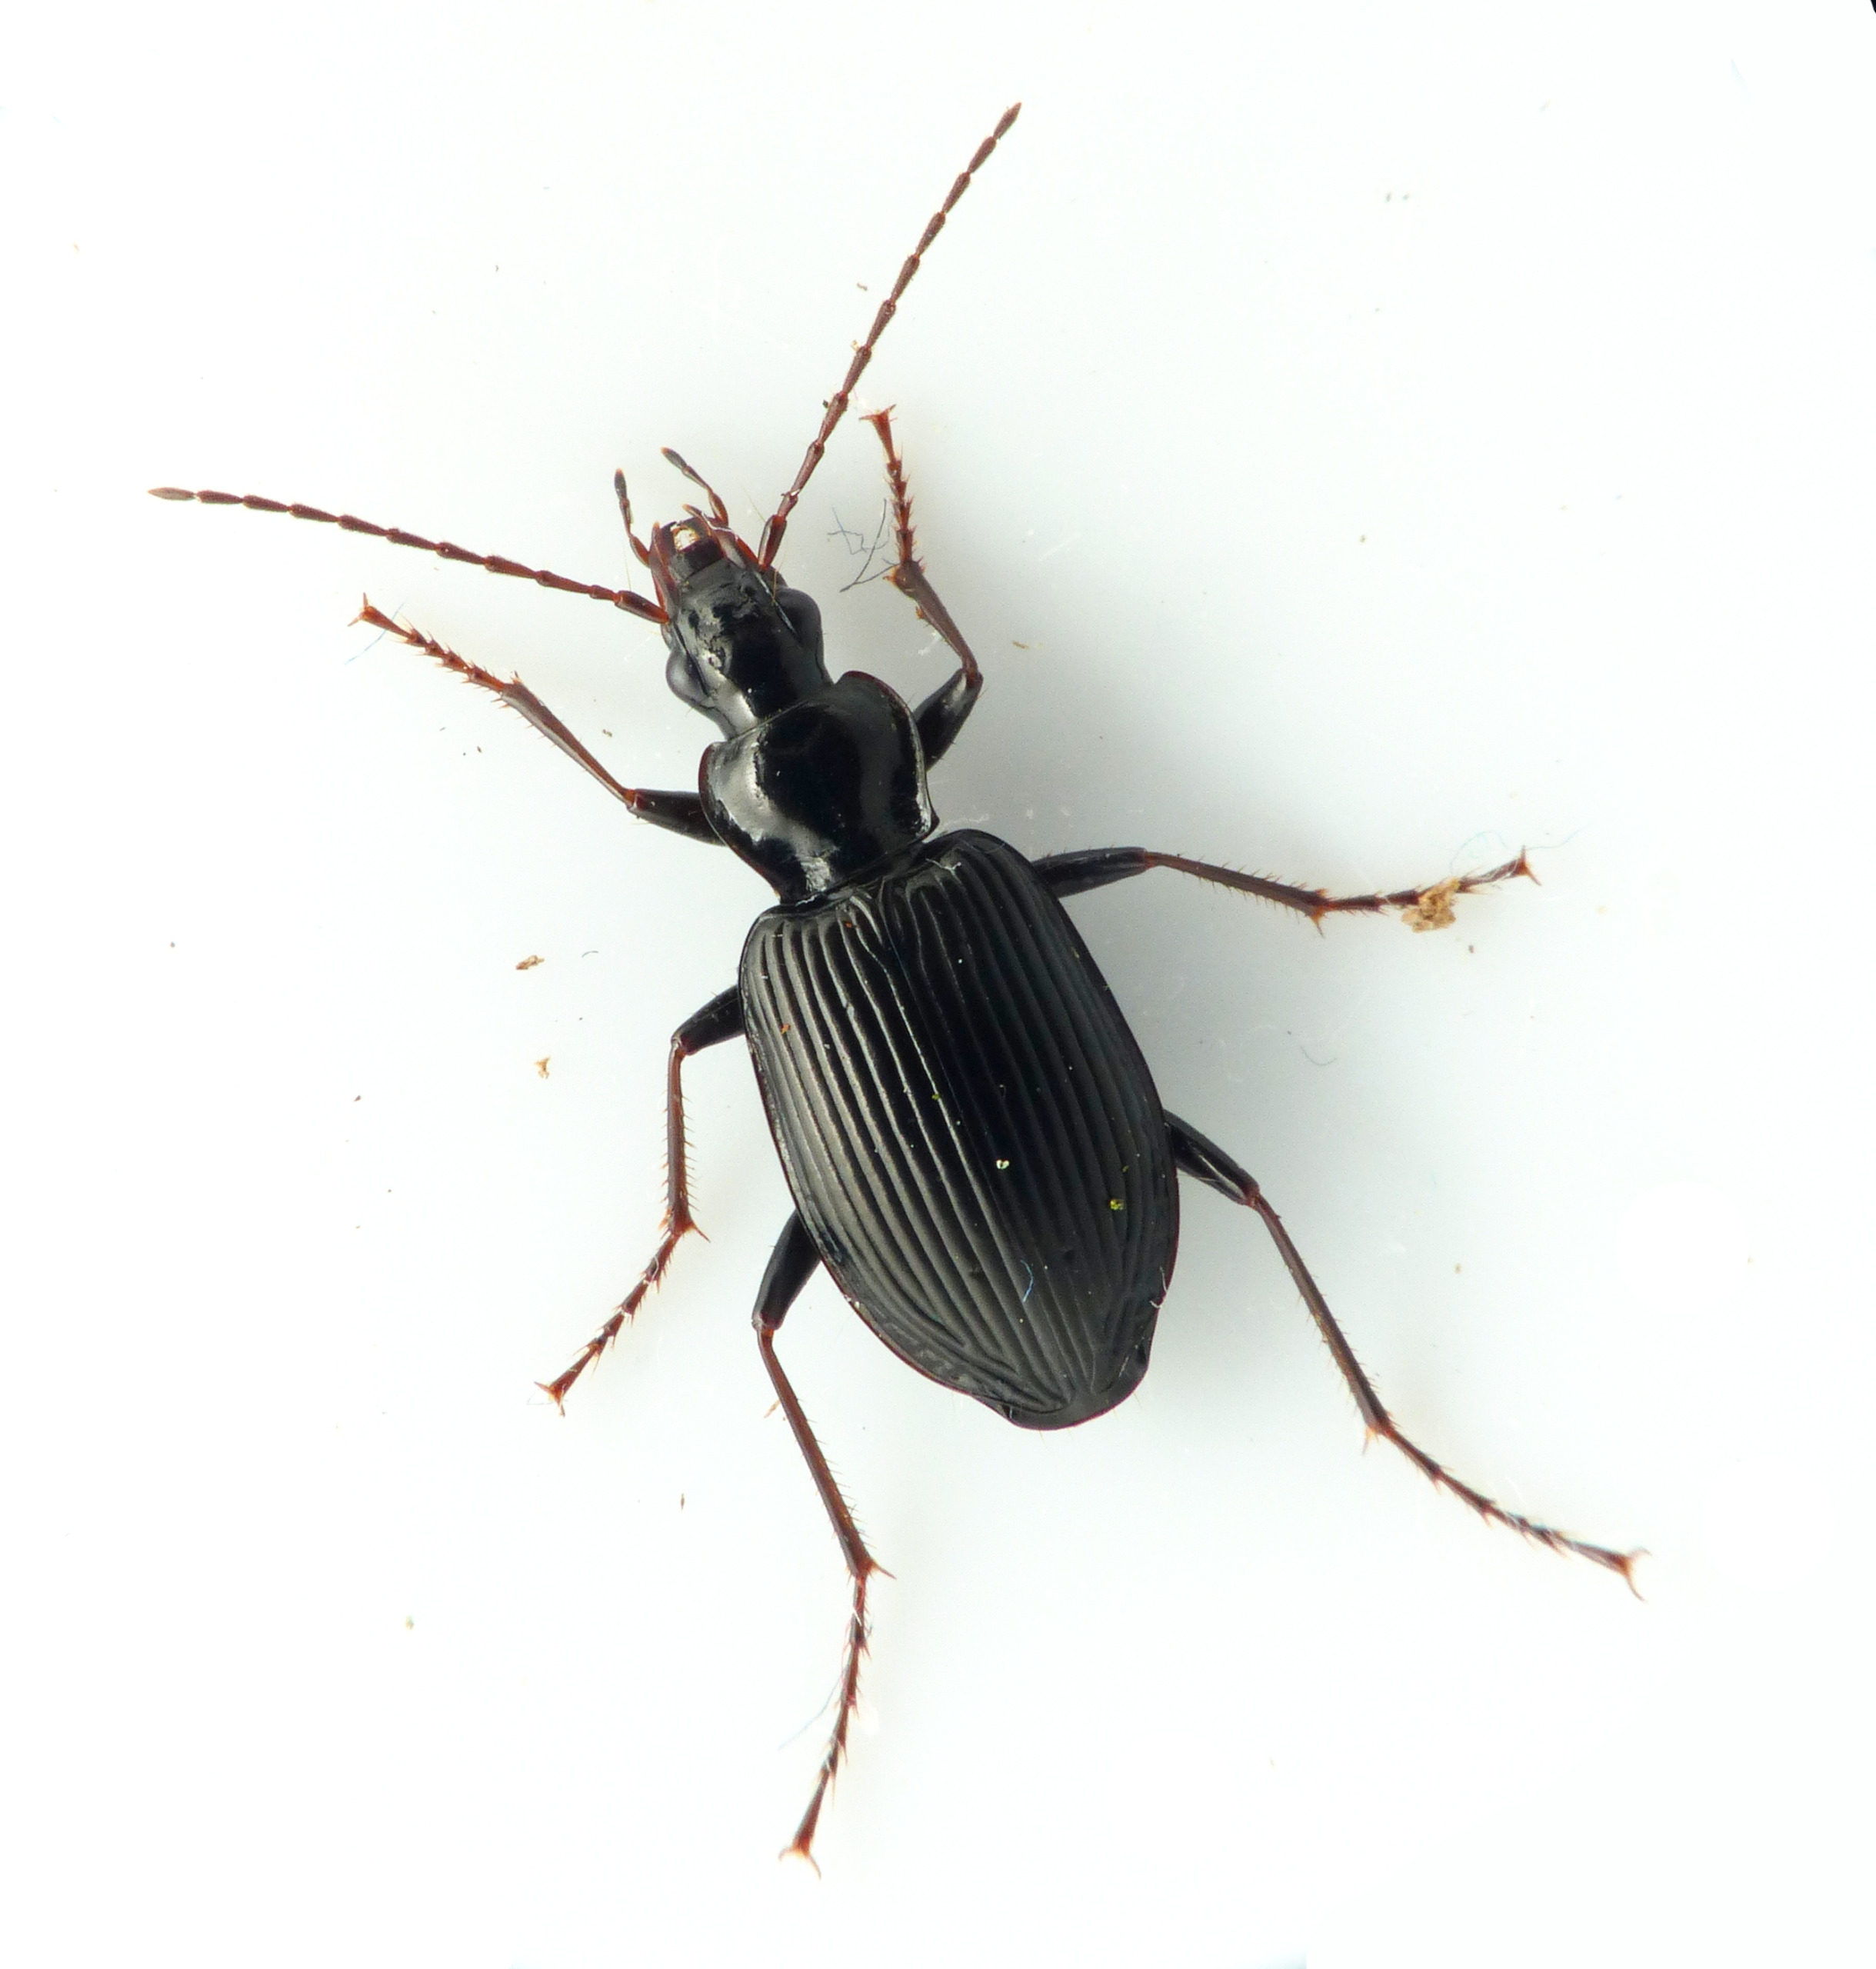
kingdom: Animalia
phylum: Arthropoda
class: Insecta
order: Coleoptera
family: Carabidae
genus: Platynus
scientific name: Platynus assimilis
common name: Skovkvikløber
